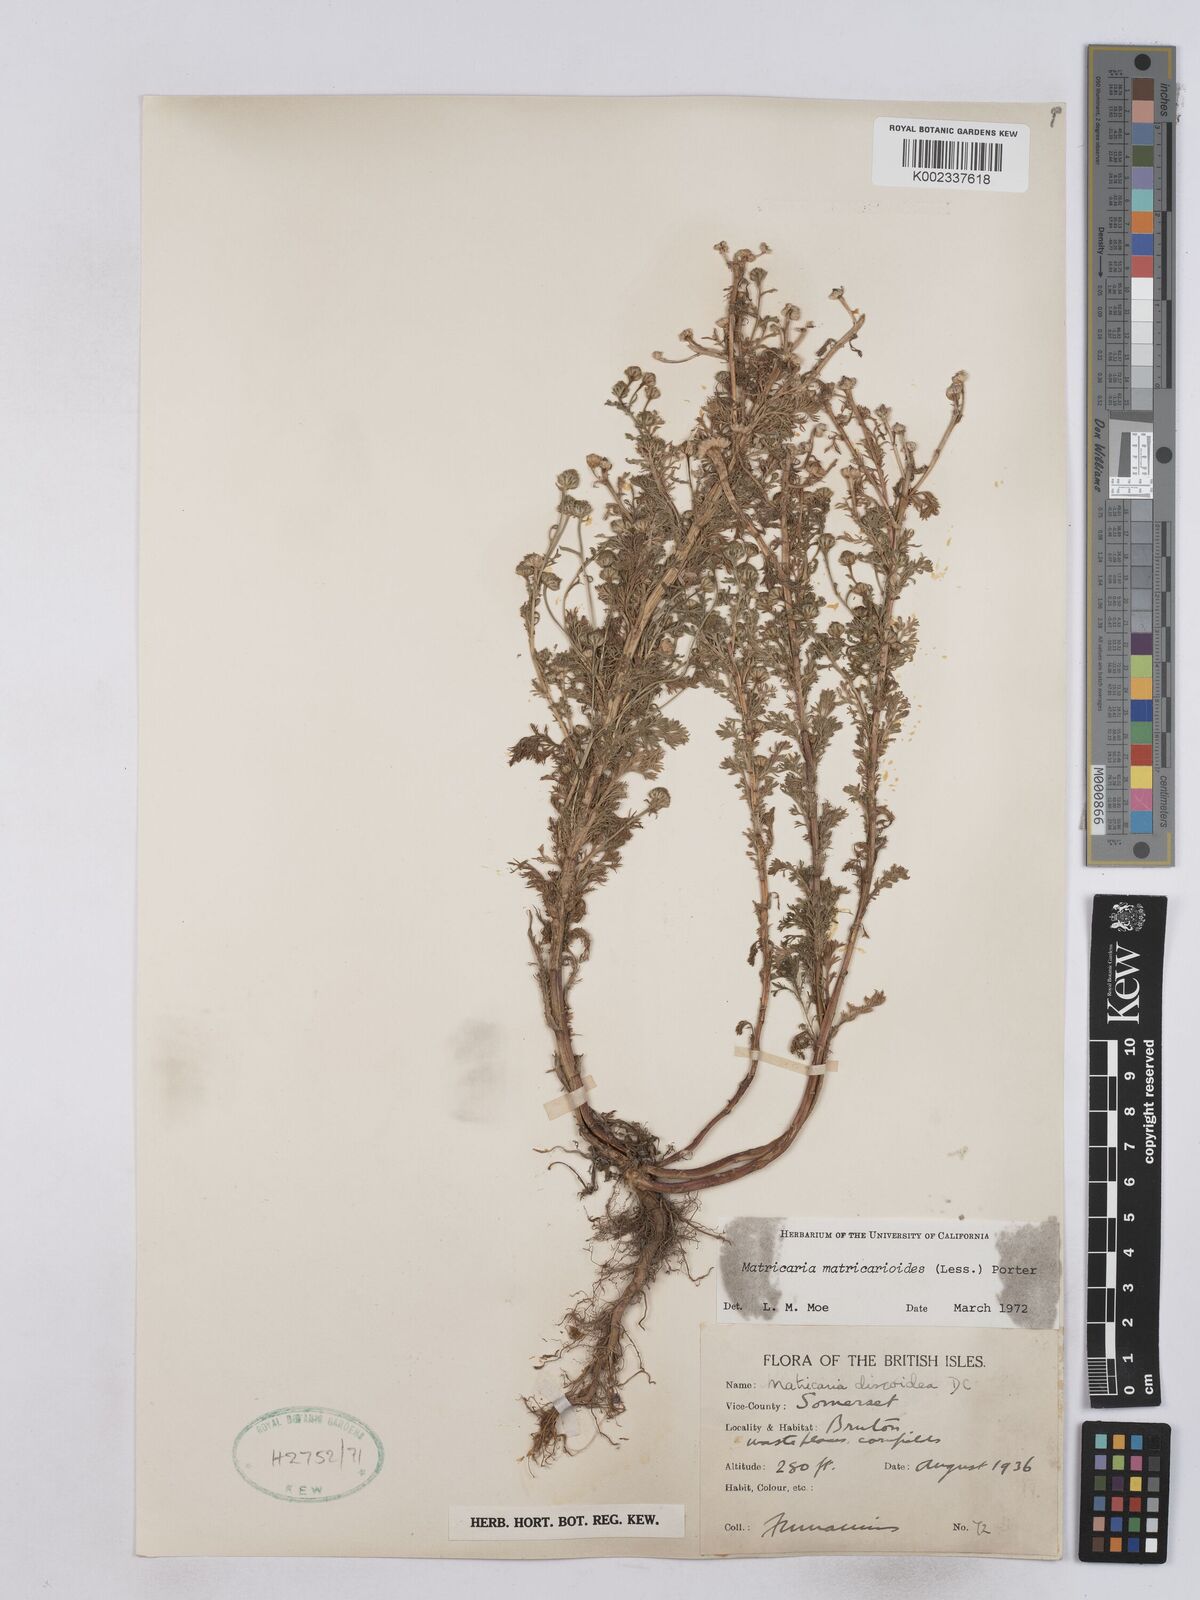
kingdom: Plantae
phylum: Tracheophyta
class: Magnoliopsida
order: Asterales
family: Asteraceae
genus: Matricaria
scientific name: Matricaria discoidea
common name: Disc mayweed
